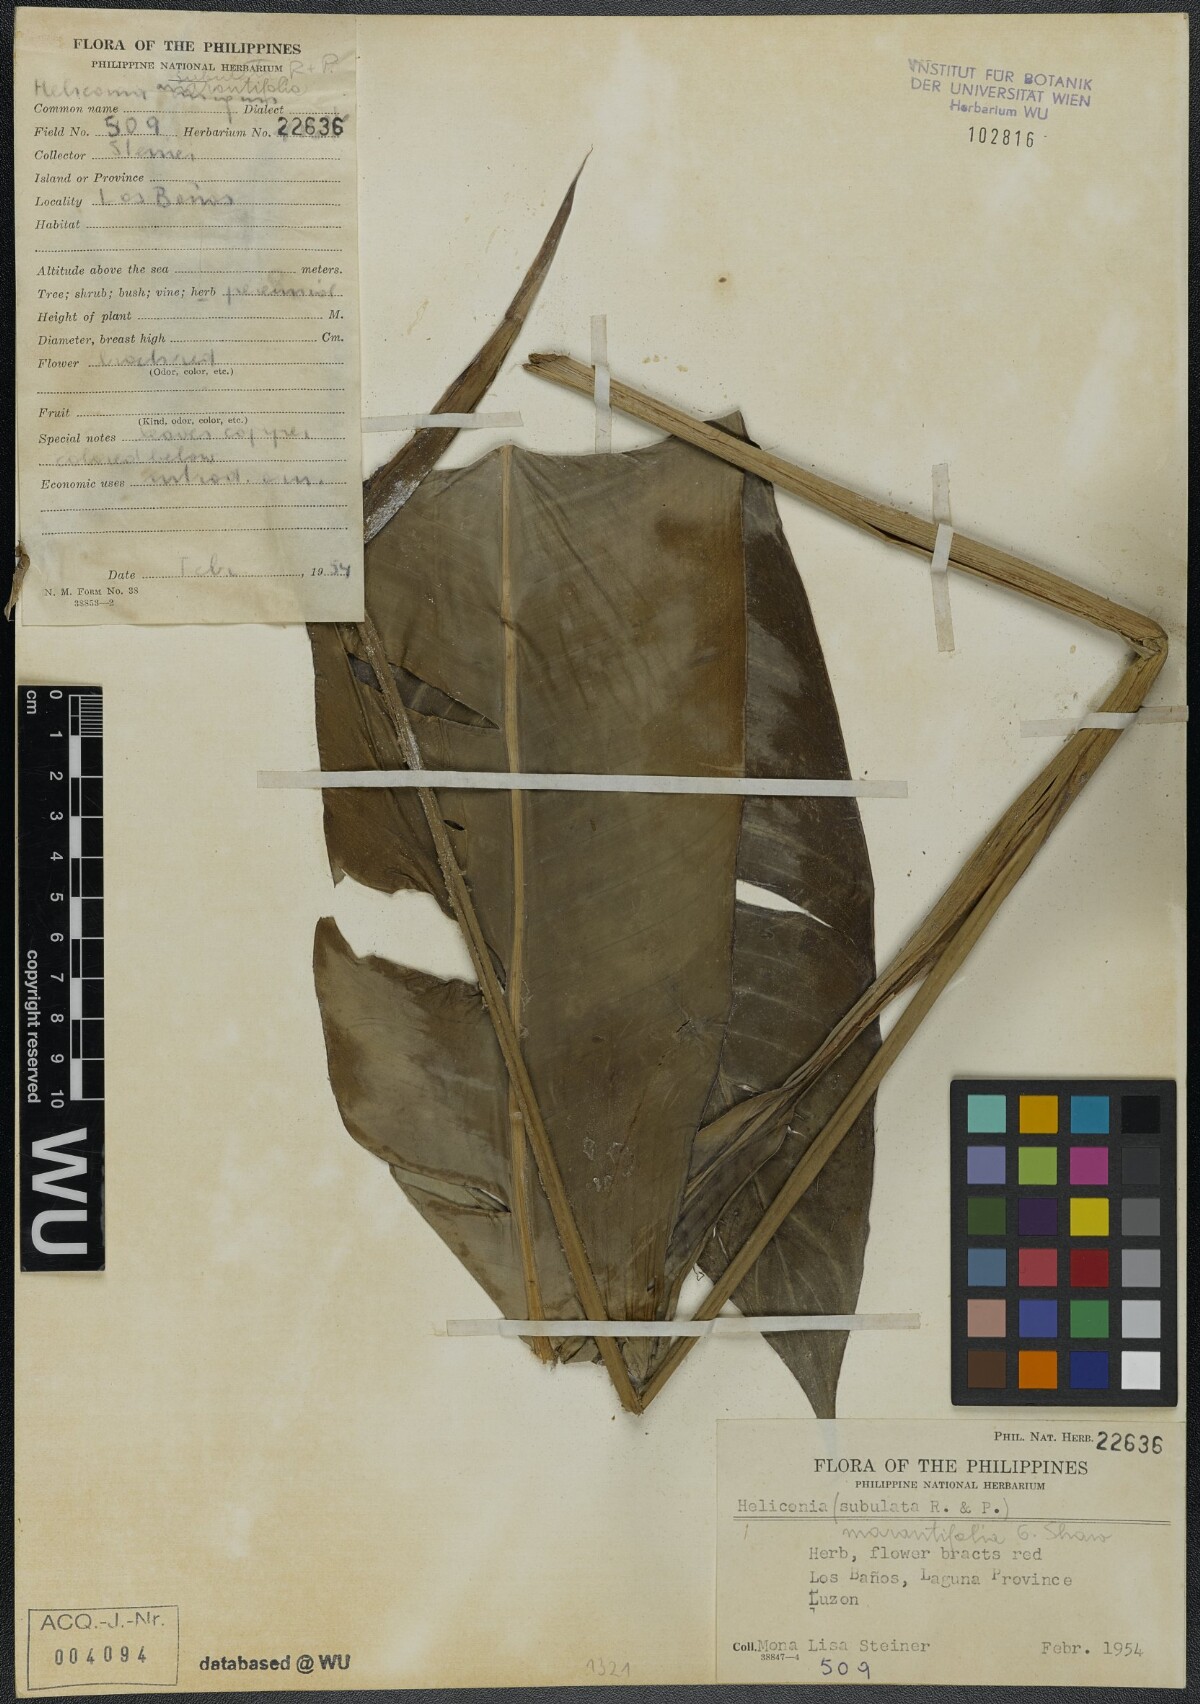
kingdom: Plantae
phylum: Tracheophyta
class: Liliopsida
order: Zingiberales
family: Heliconiaceae
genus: Heliconia
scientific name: Heliconia psittacorum
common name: Parrot's-flower
